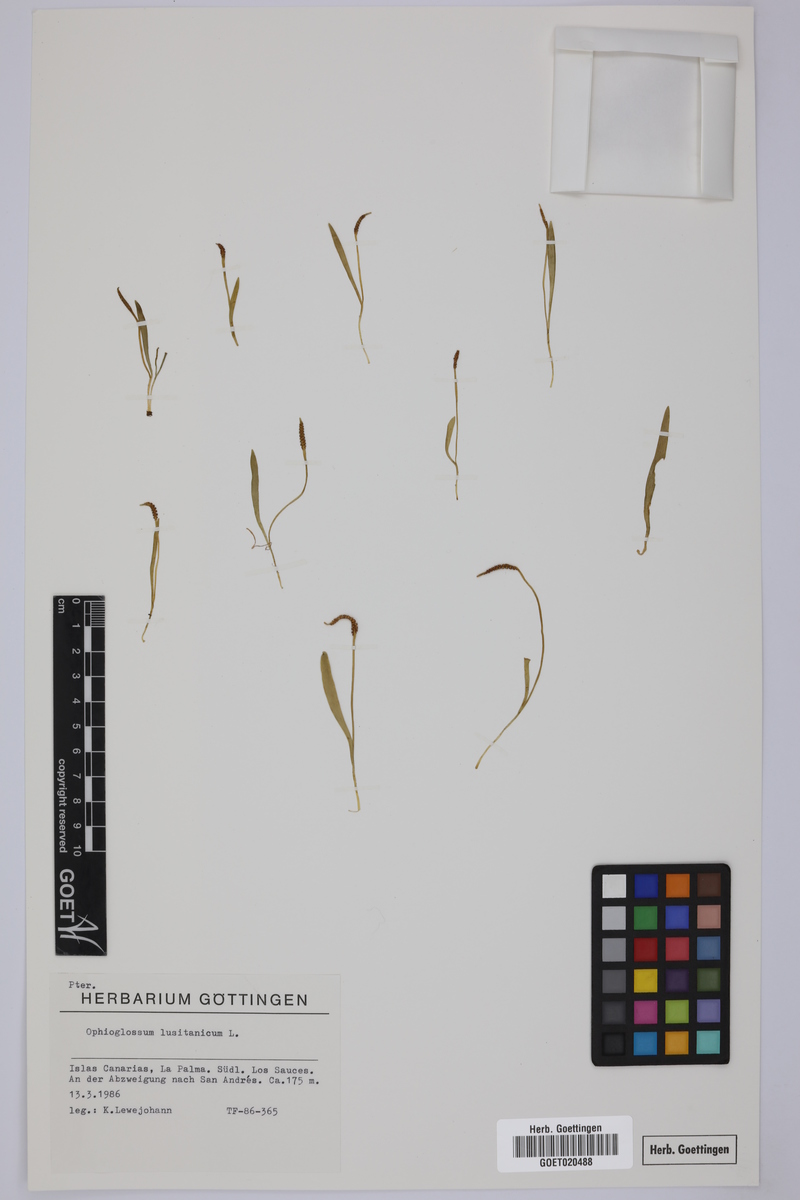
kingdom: Plantae
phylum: Tracheophyta
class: Polypodiopsida
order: Ophioglossales
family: Ophioglossaceae
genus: Ophioglossum
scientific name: Ophioglossum lusitanicum
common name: Least adder's-tongue
